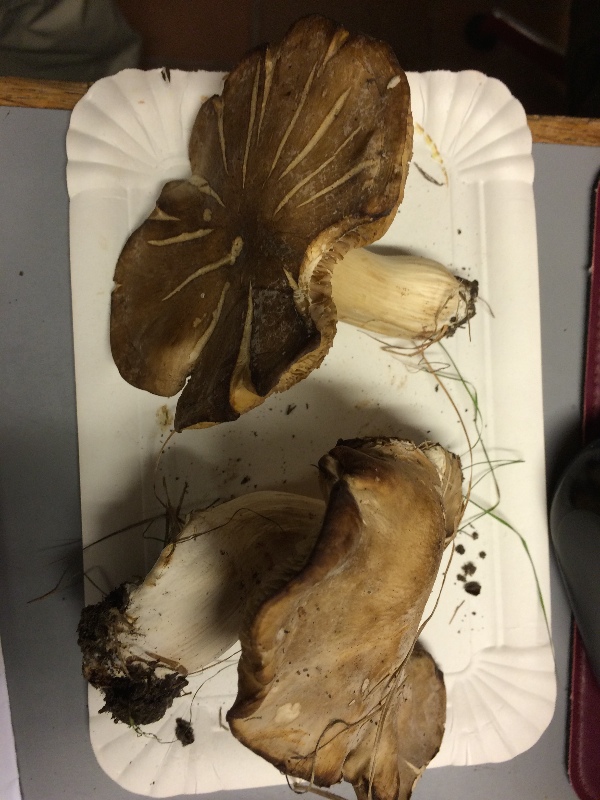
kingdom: Fungi
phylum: Basidiomycota
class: Agaricomycetes
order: Agaricales
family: Lyophyllaceae
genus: Lyophyllum
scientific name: Lyophyllum
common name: gråblad
